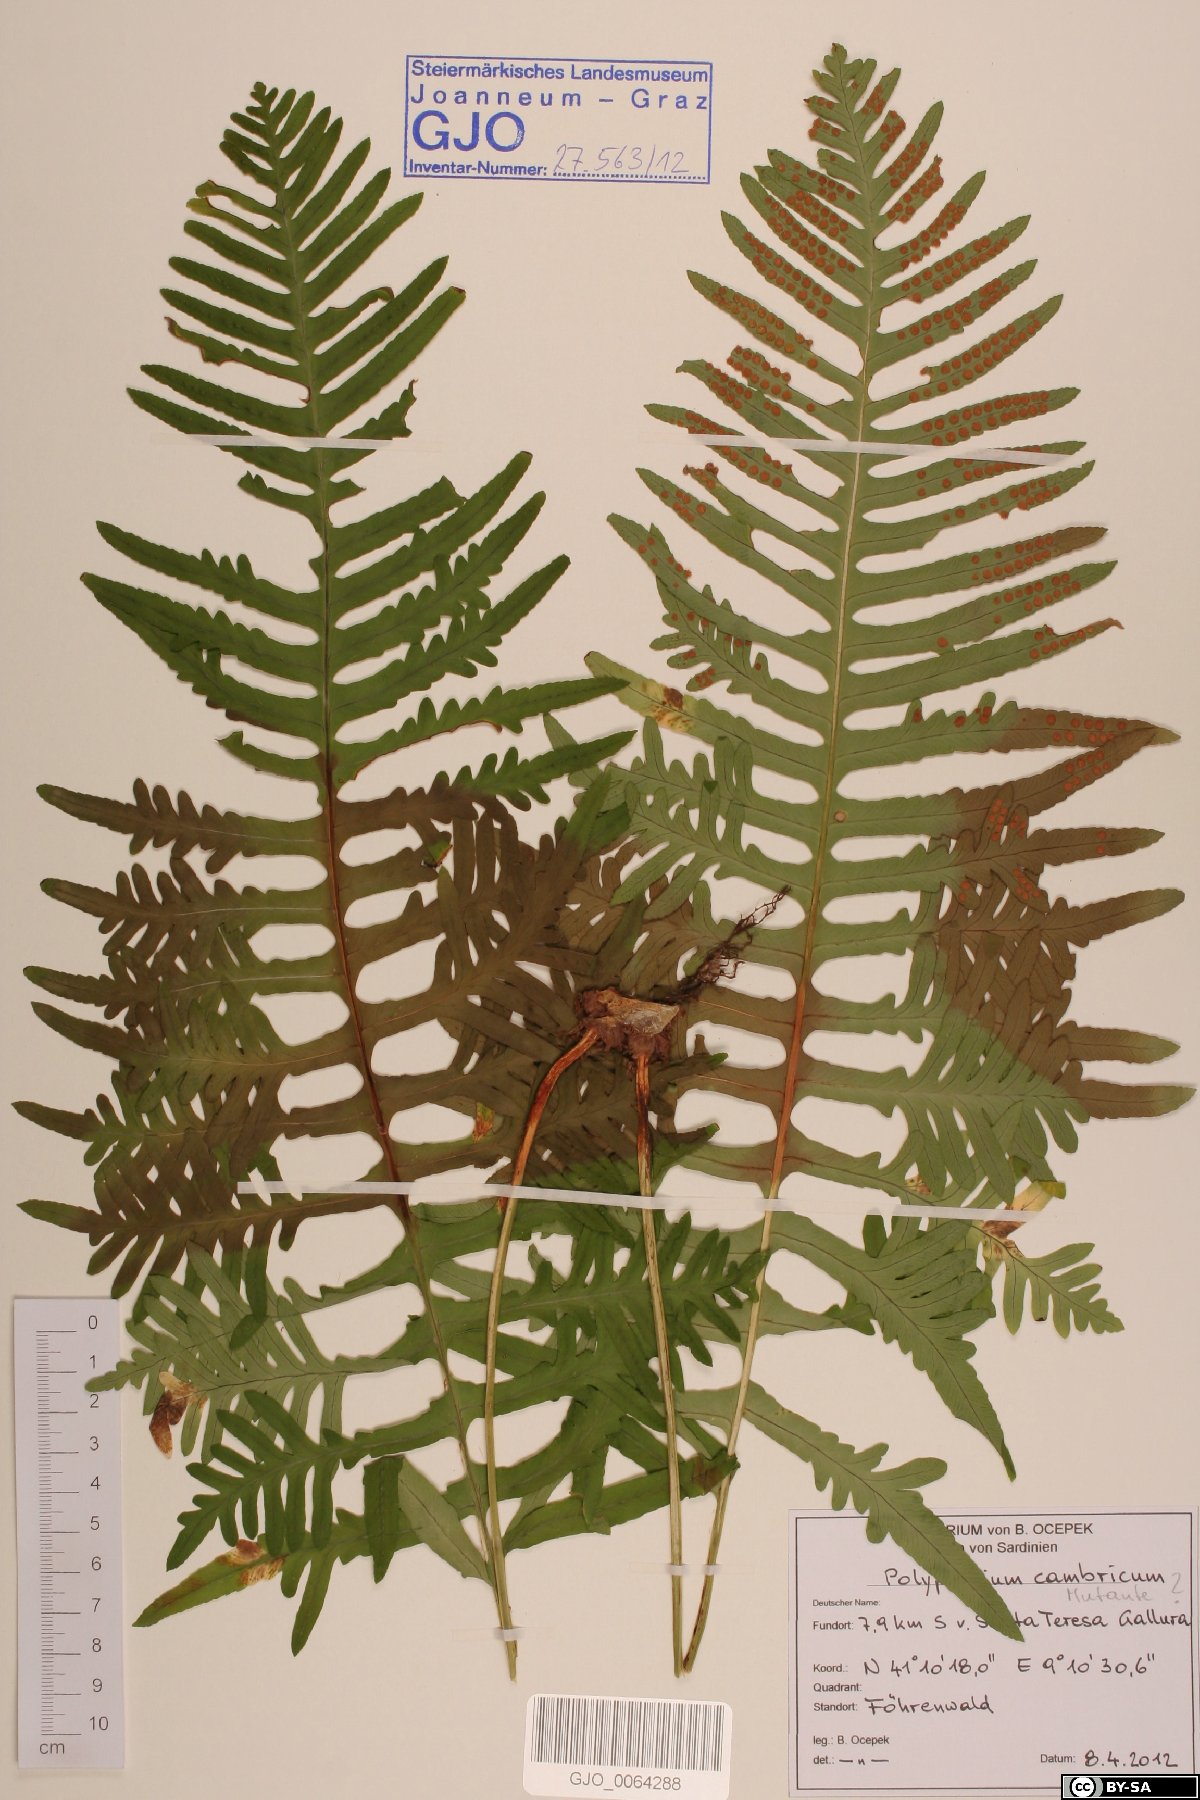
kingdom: Plantae
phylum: Tracheophyta
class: Polypodiopsida
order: Polypodiales
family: Polypodiaceae
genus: Polypodium
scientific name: Polypodium cambricum
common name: Southern polypody
